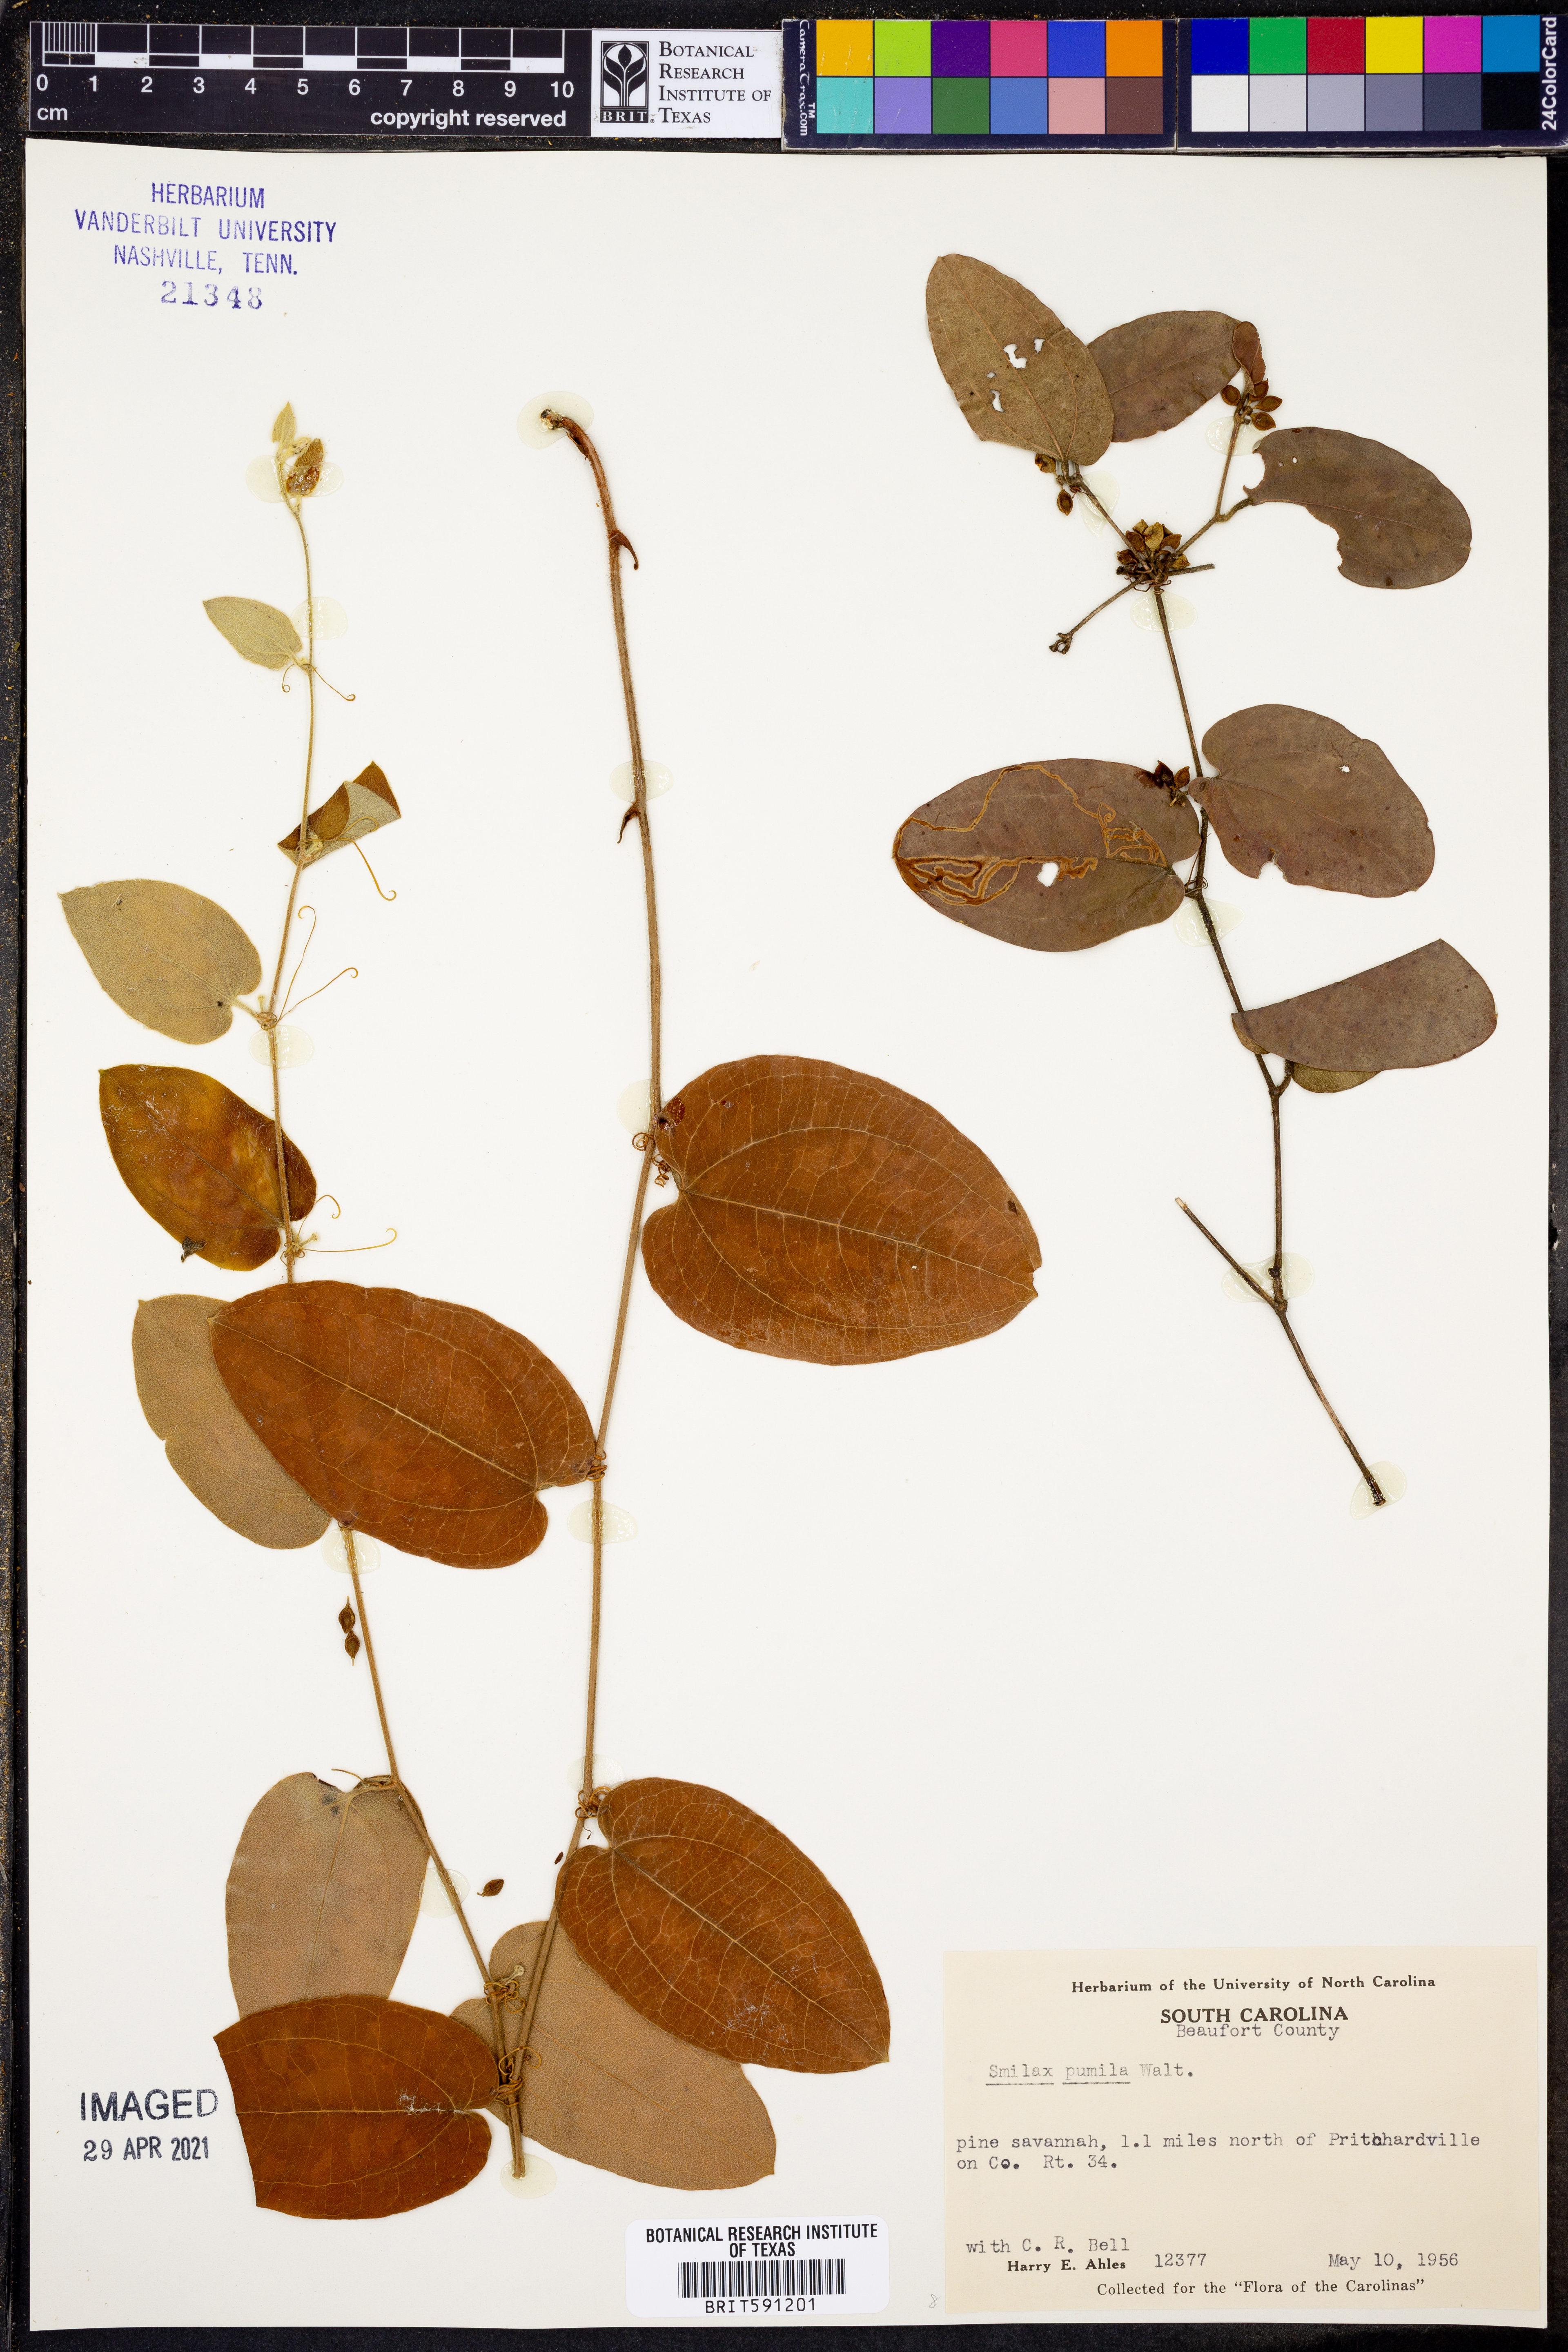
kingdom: Plantae
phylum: Tracheophyta
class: Liliopsida
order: Liliales
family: Smilacaceae
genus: Smilax
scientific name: Smilax pumila
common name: Sarsaparilla-vine
